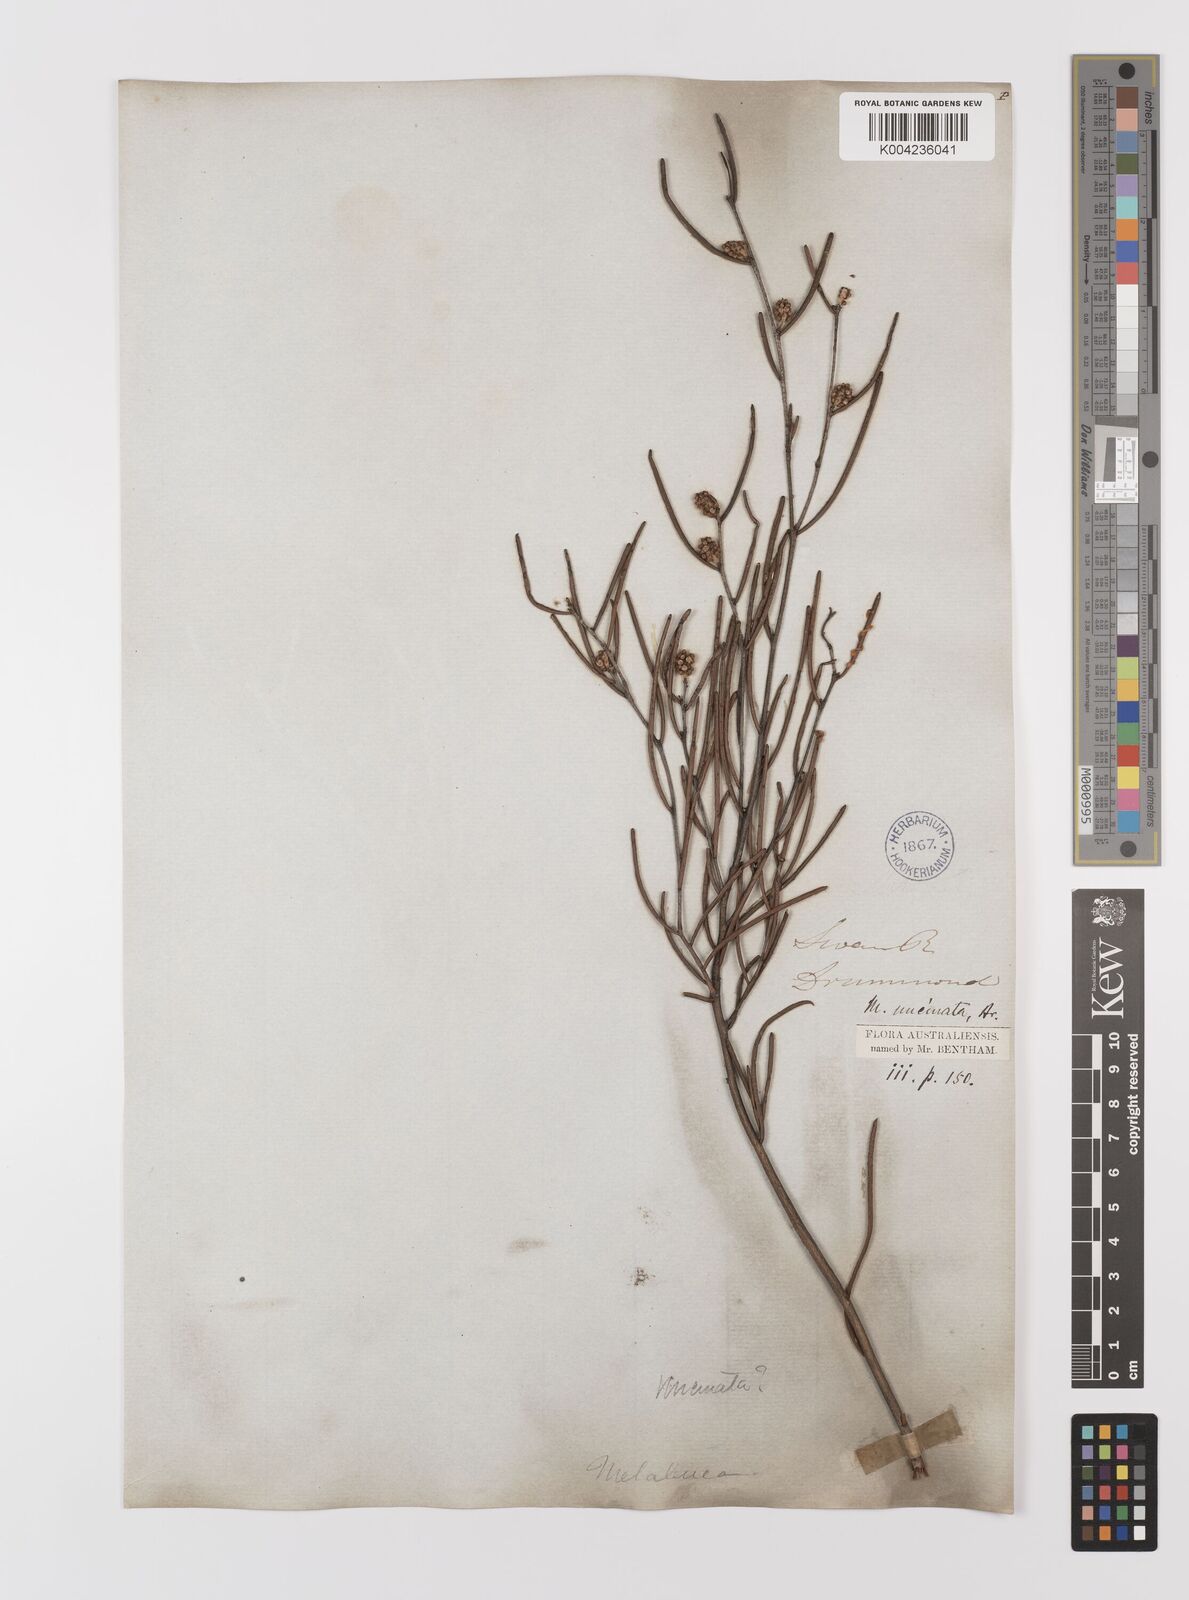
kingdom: Plantae
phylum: Tracheophyta
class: Magnoliopsida
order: Myrtales
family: Myrtaceae
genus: Melaleuca
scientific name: Melaleuca uncinata
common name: Broom honey myrtle
